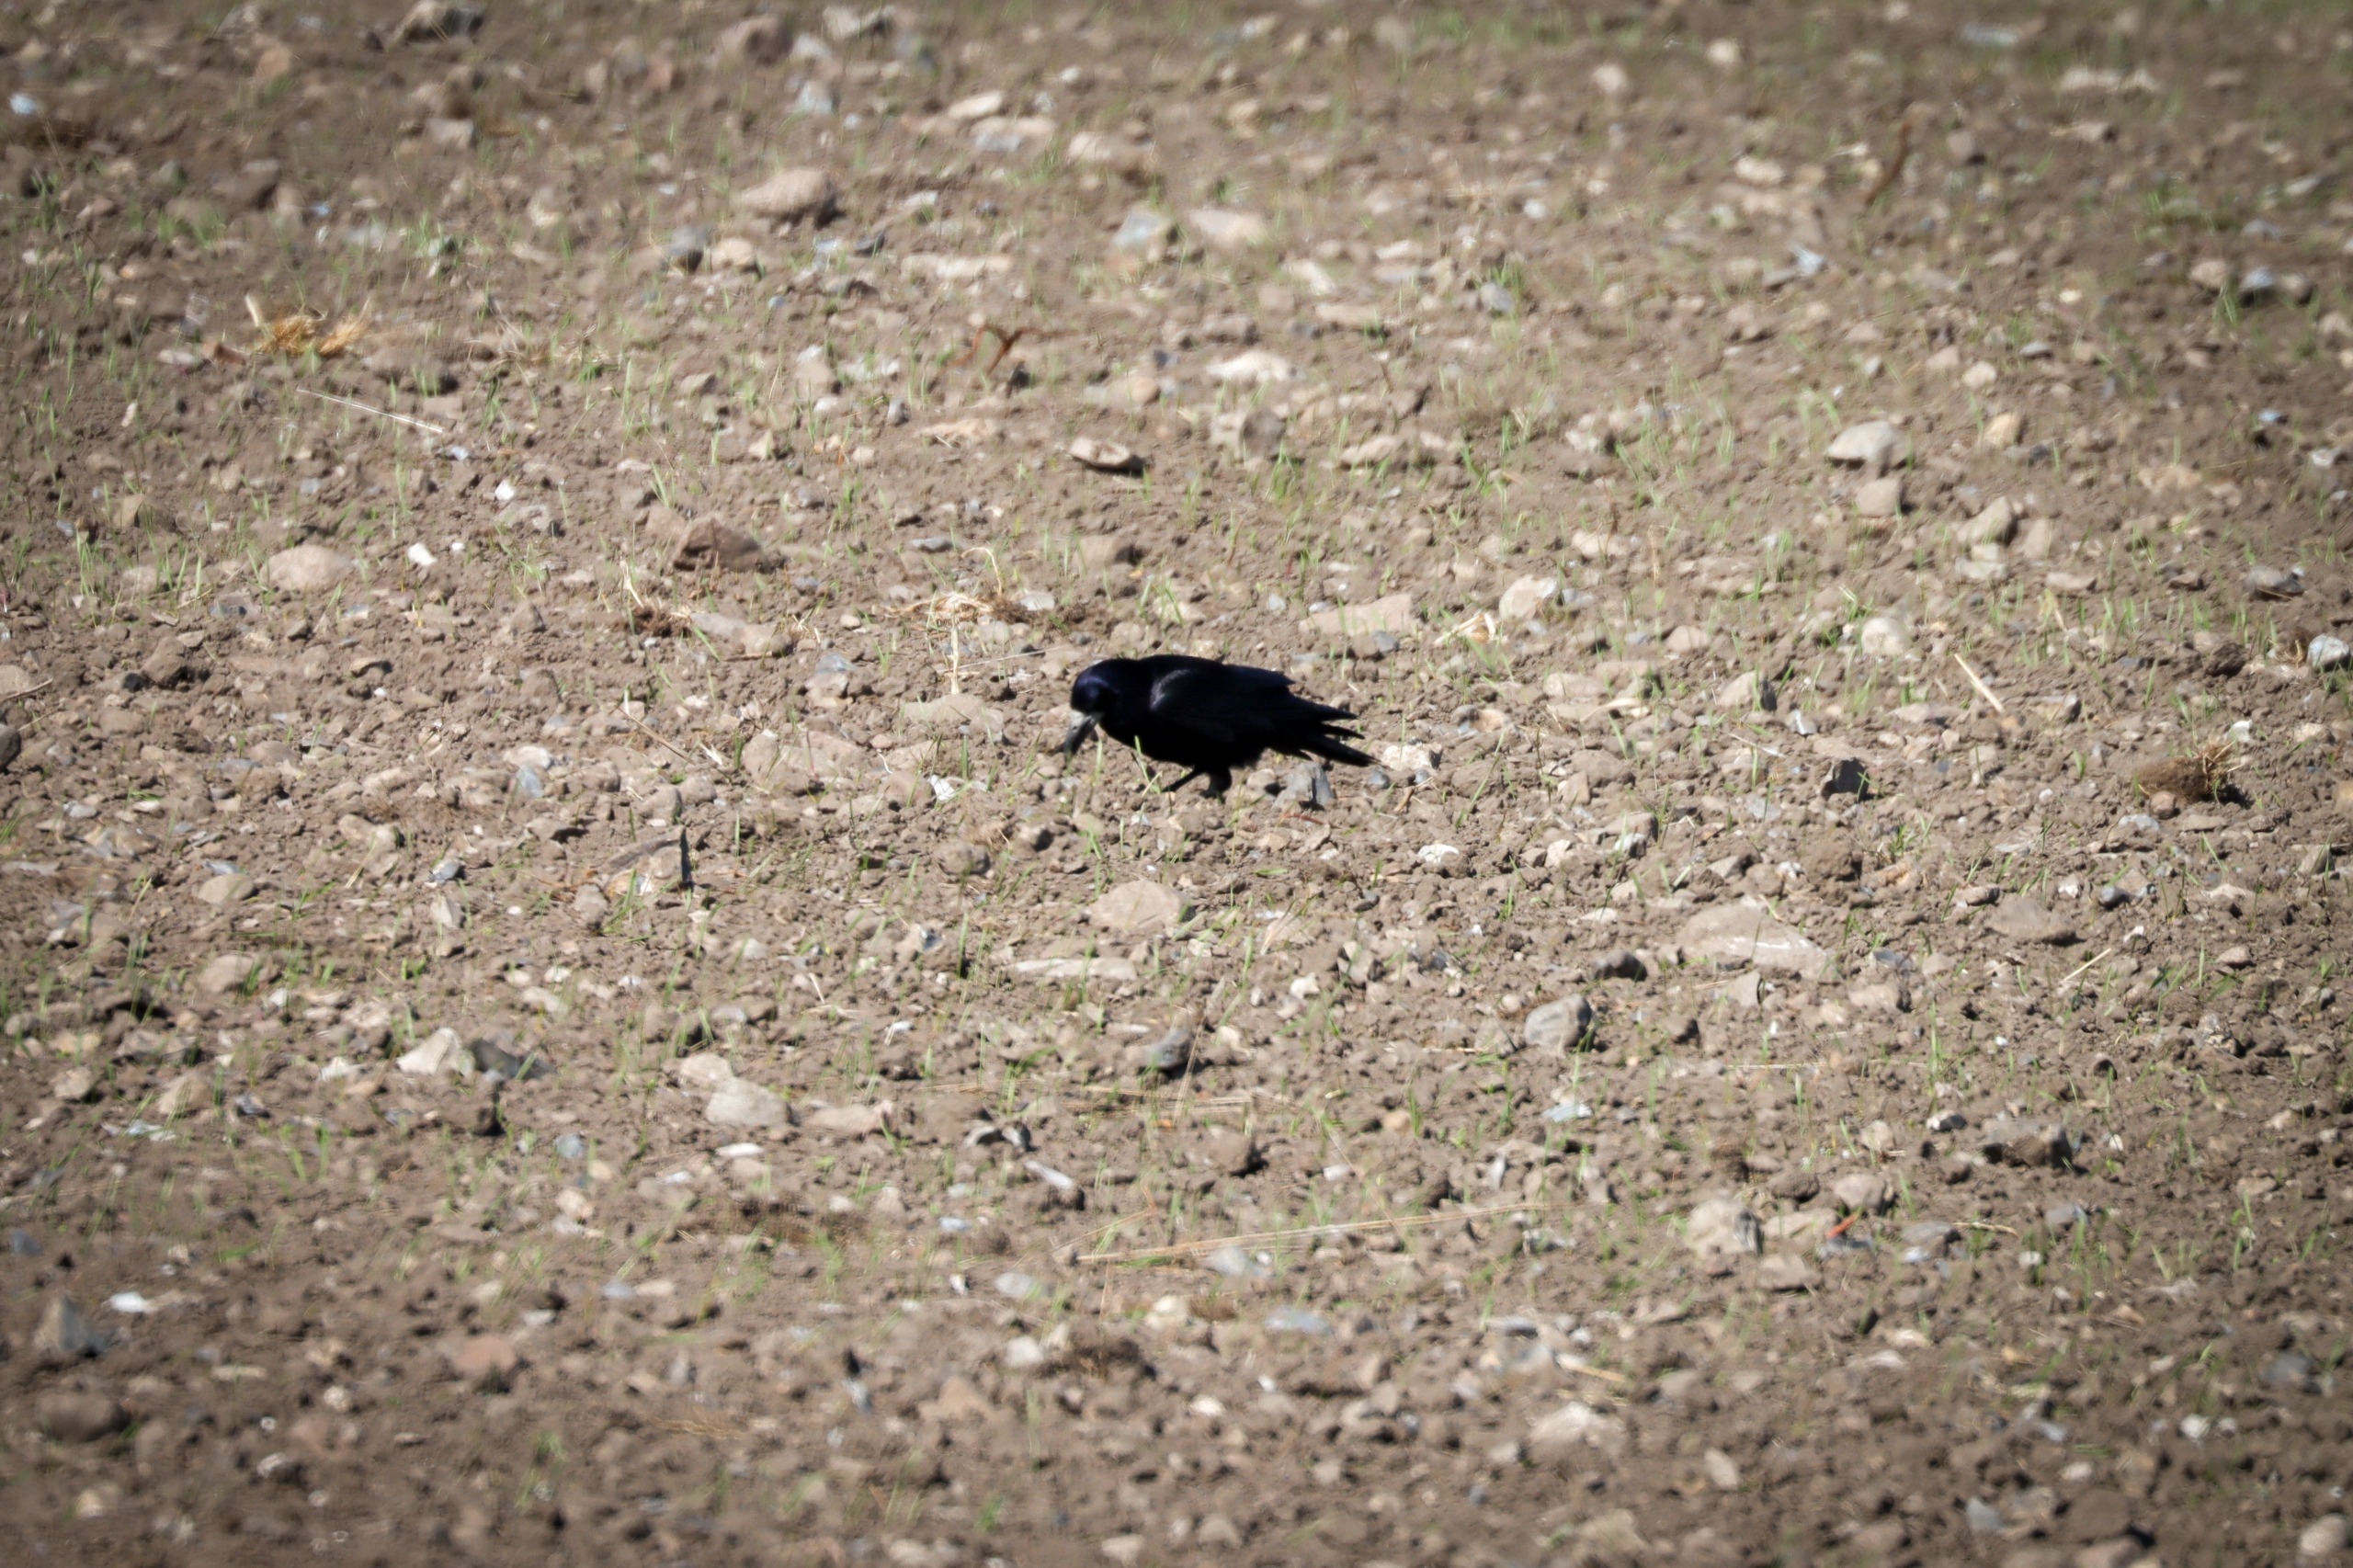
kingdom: Animalia
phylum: Chordata
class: Aves
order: Passeriformes
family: Corvidae
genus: Corvus
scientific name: Corvus frugilegus
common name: Råge
